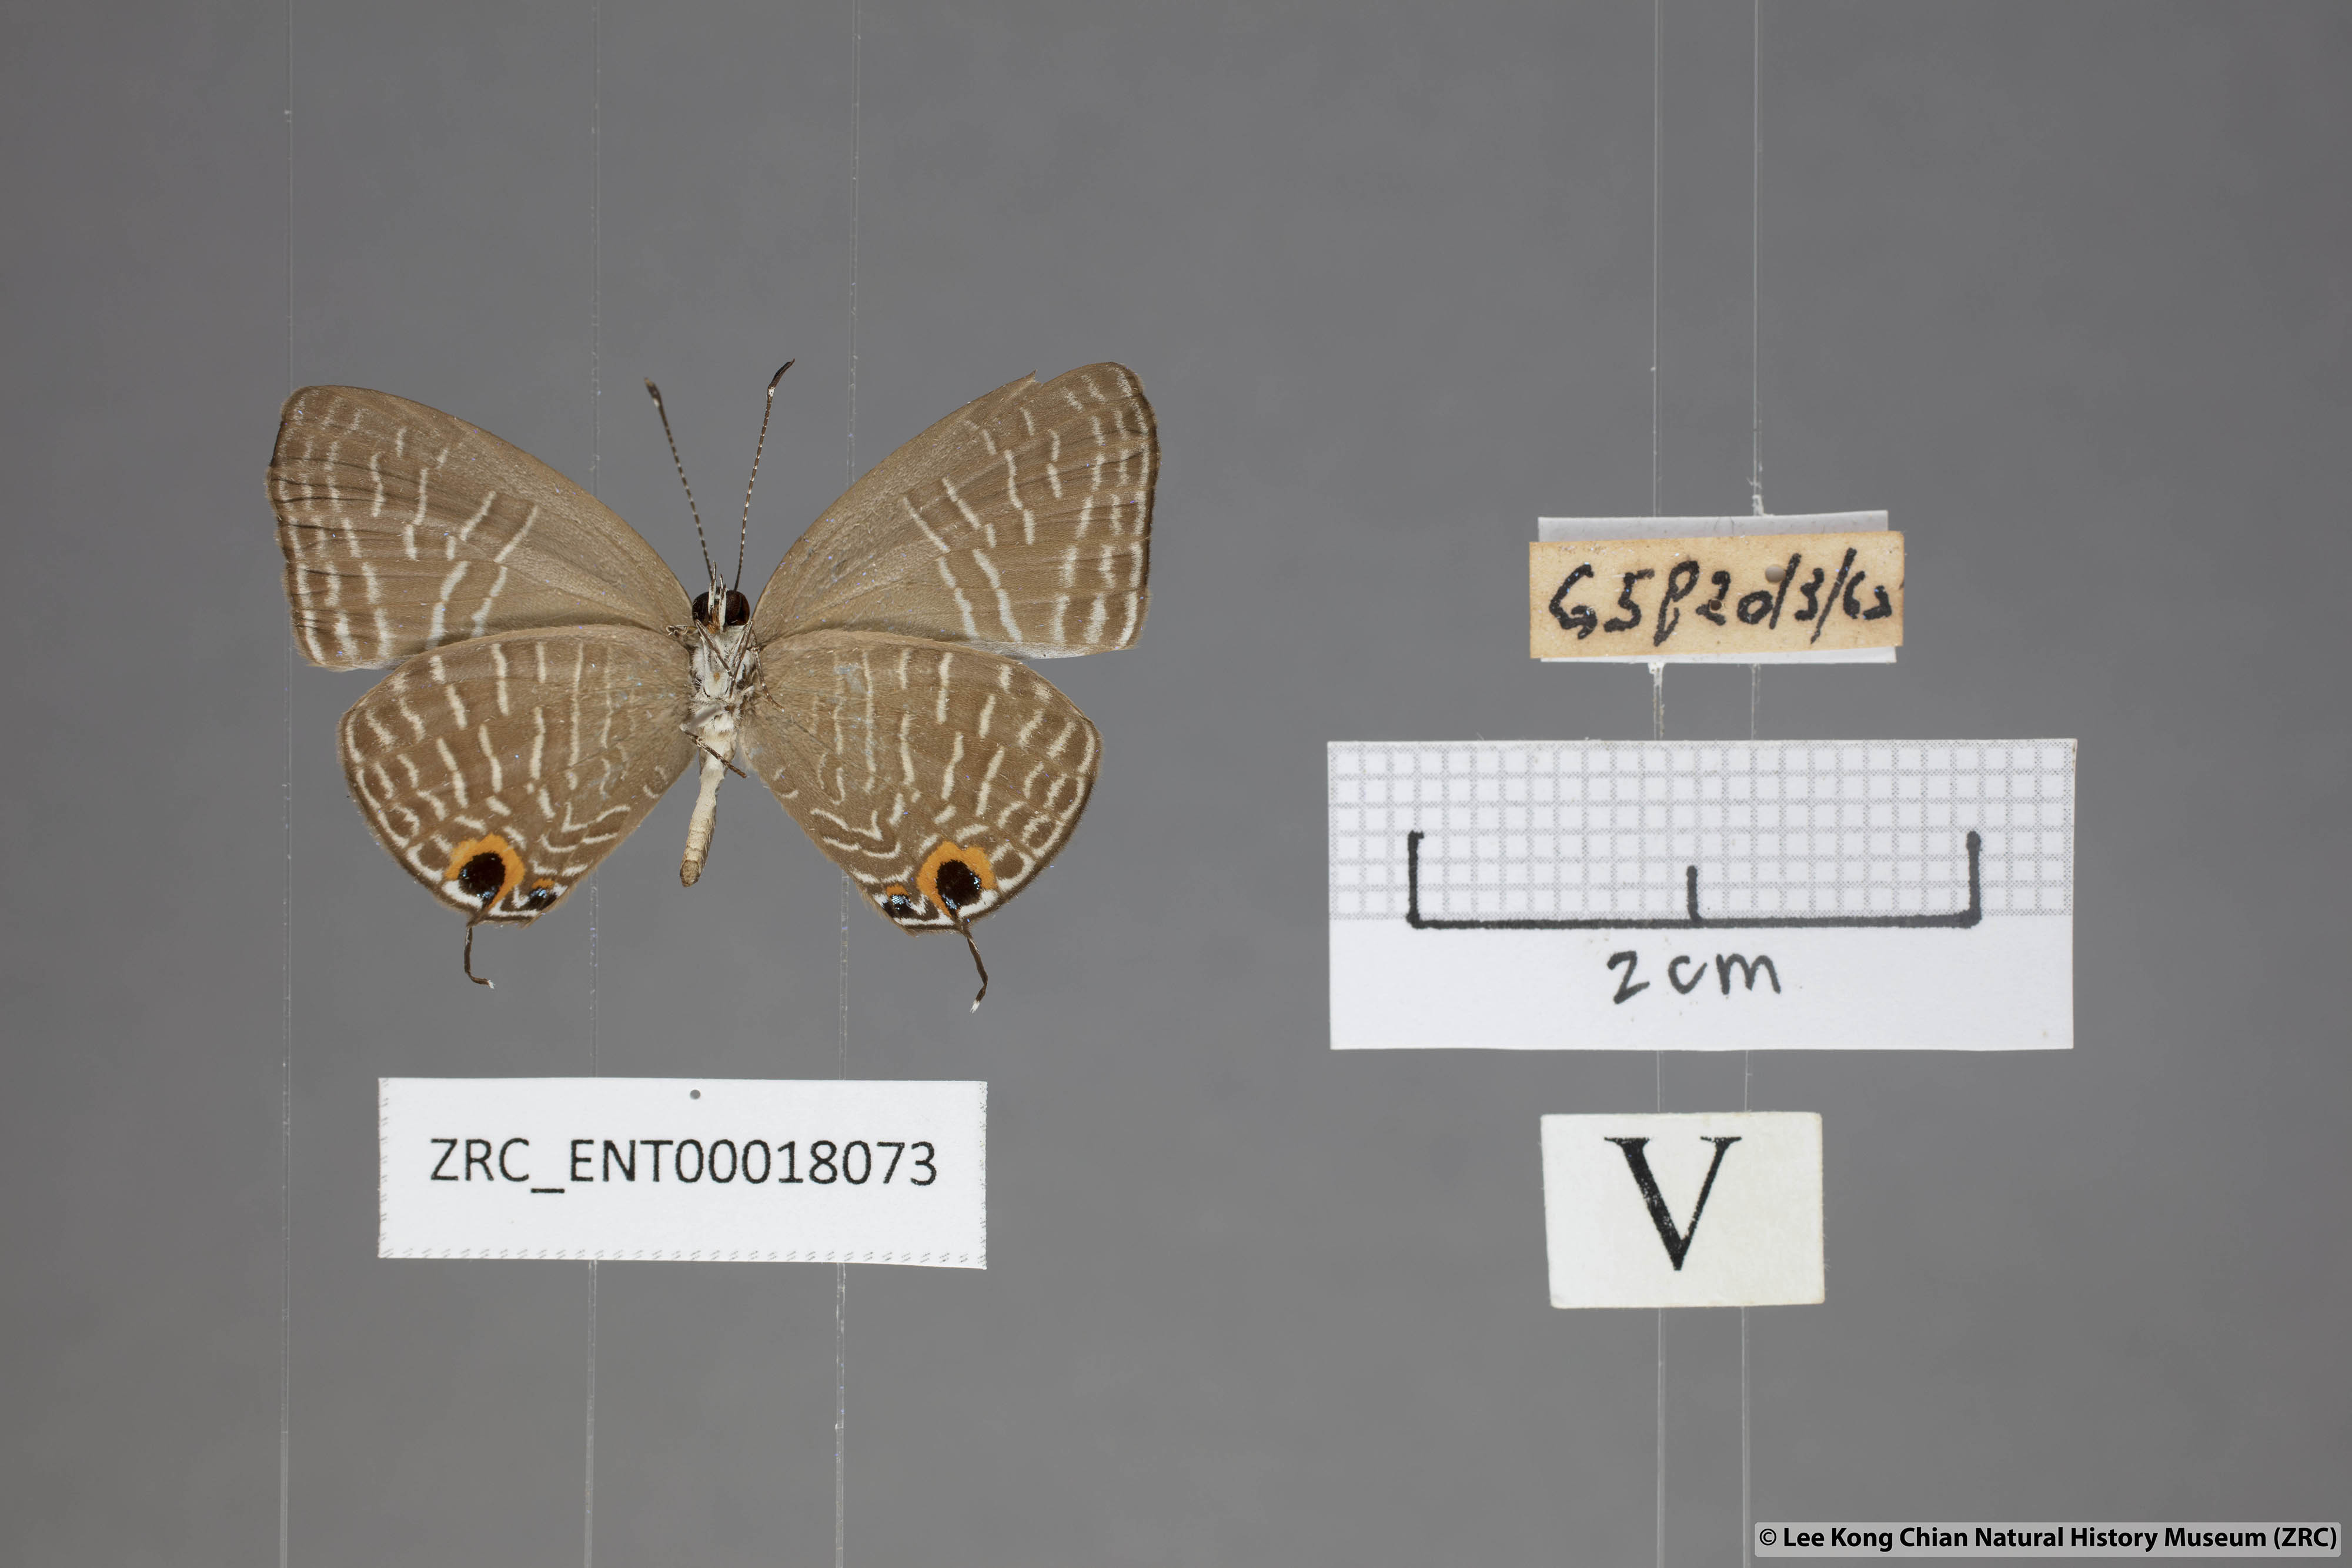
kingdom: Animalia
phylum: Arthropoda
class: Insecta
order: Lepidoptera
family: Lycaenidae
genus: Jamides
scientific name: Jamides caerulea
